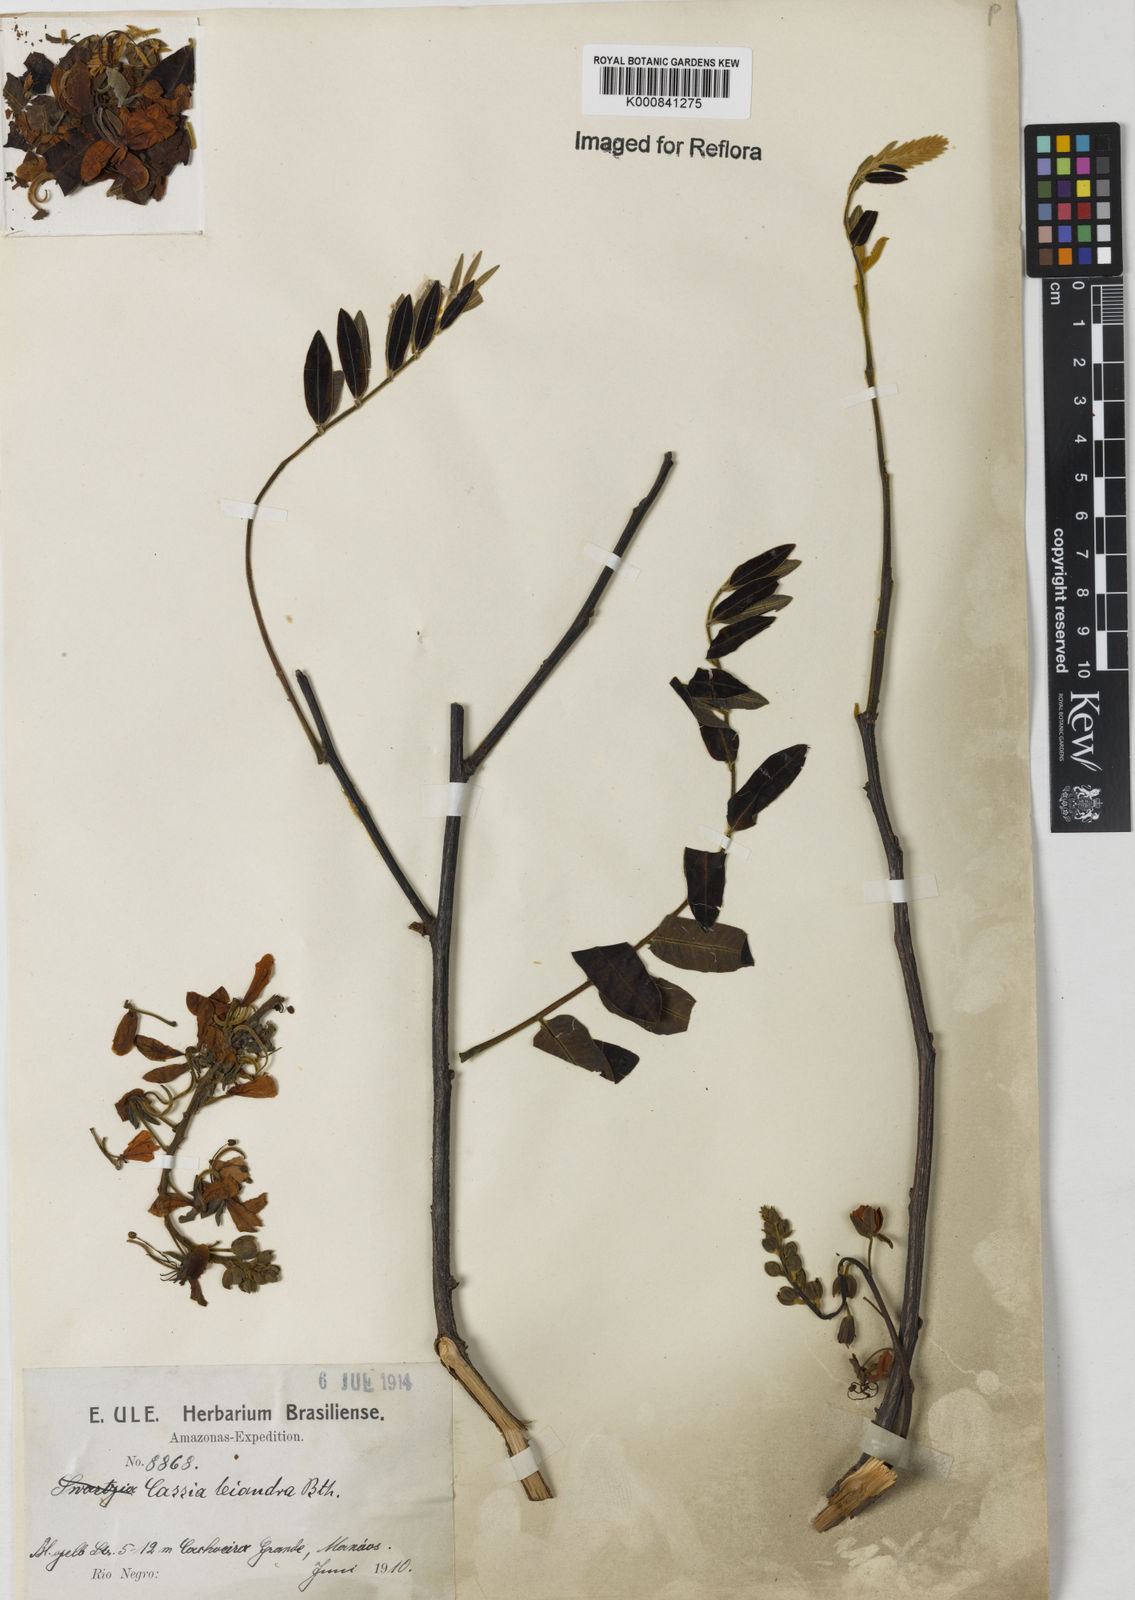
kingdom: Plantae
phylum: Tracheophyta
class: Magnoliopsida
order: Fabales
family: Fabaceae
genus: Cassia
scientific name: Cassia leiandra
